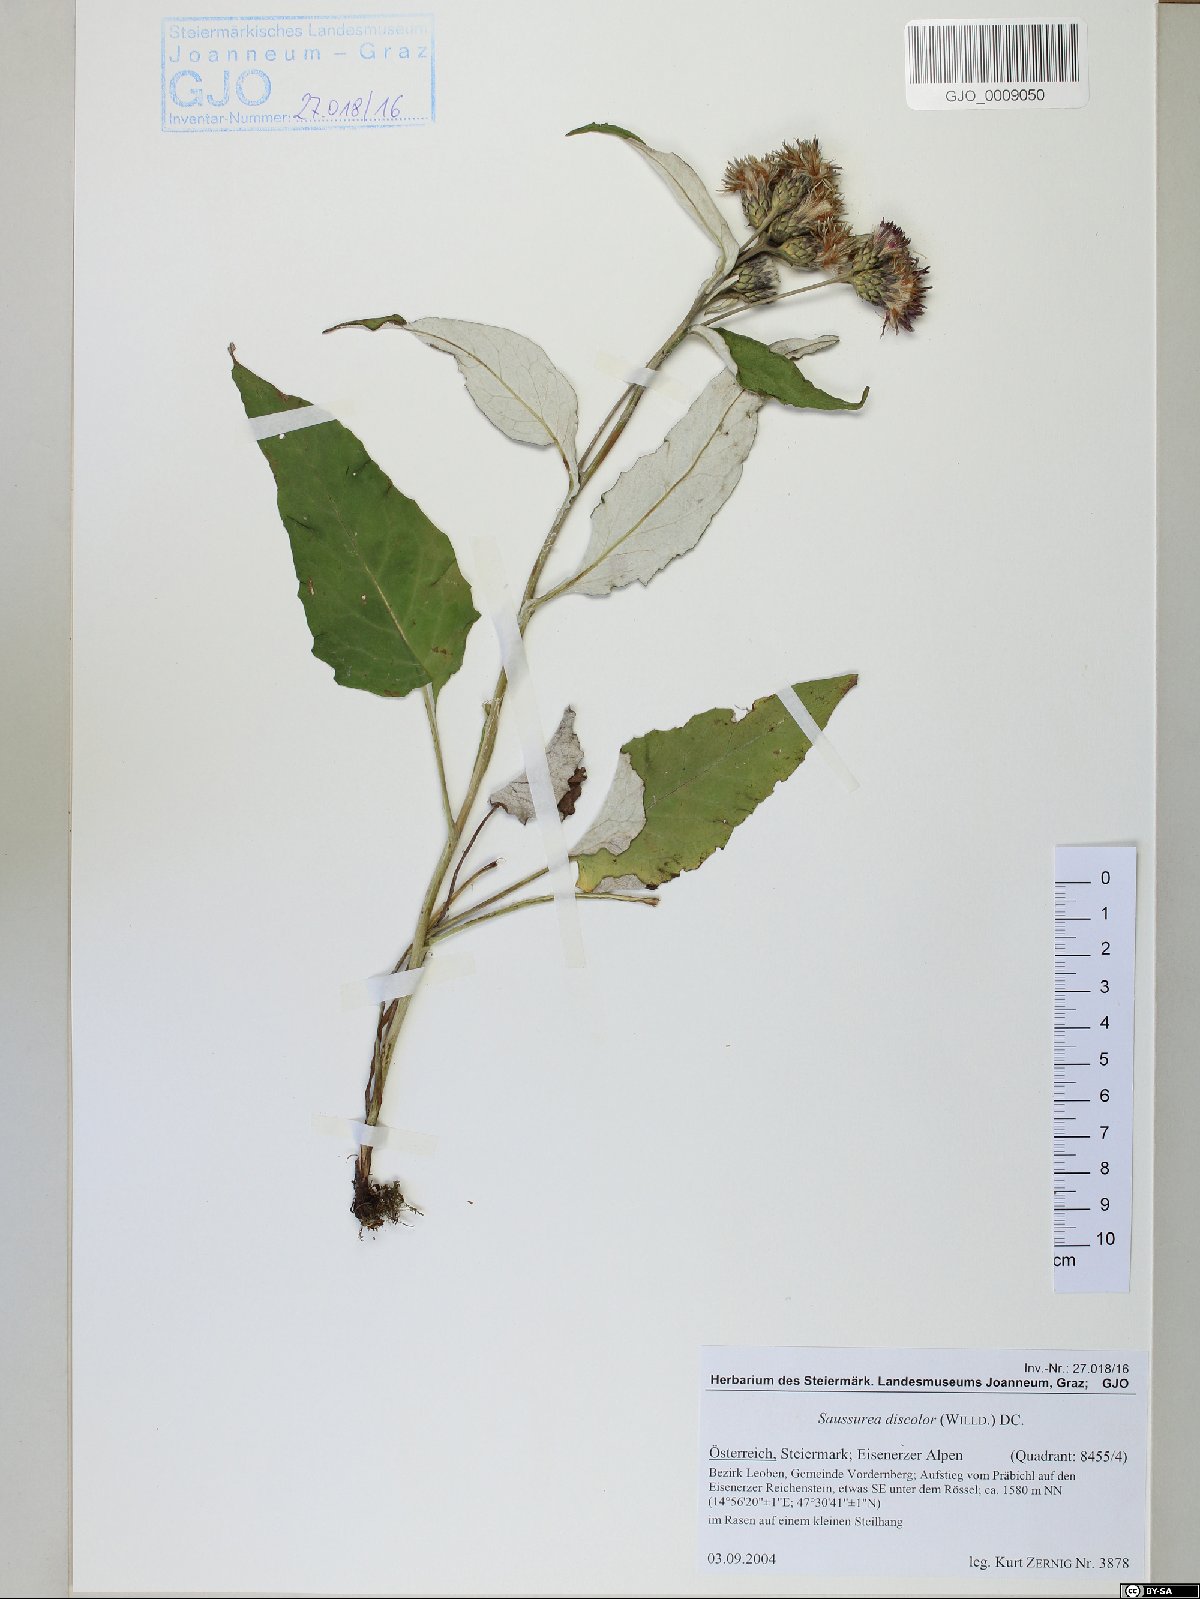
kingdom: Plantae
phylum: Tracheophyta
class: Magnoliopsida
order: Asterales
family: Asteraceae
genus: Saussurea
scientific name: Saussurea discolor
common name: Heart-leaved saussurea
